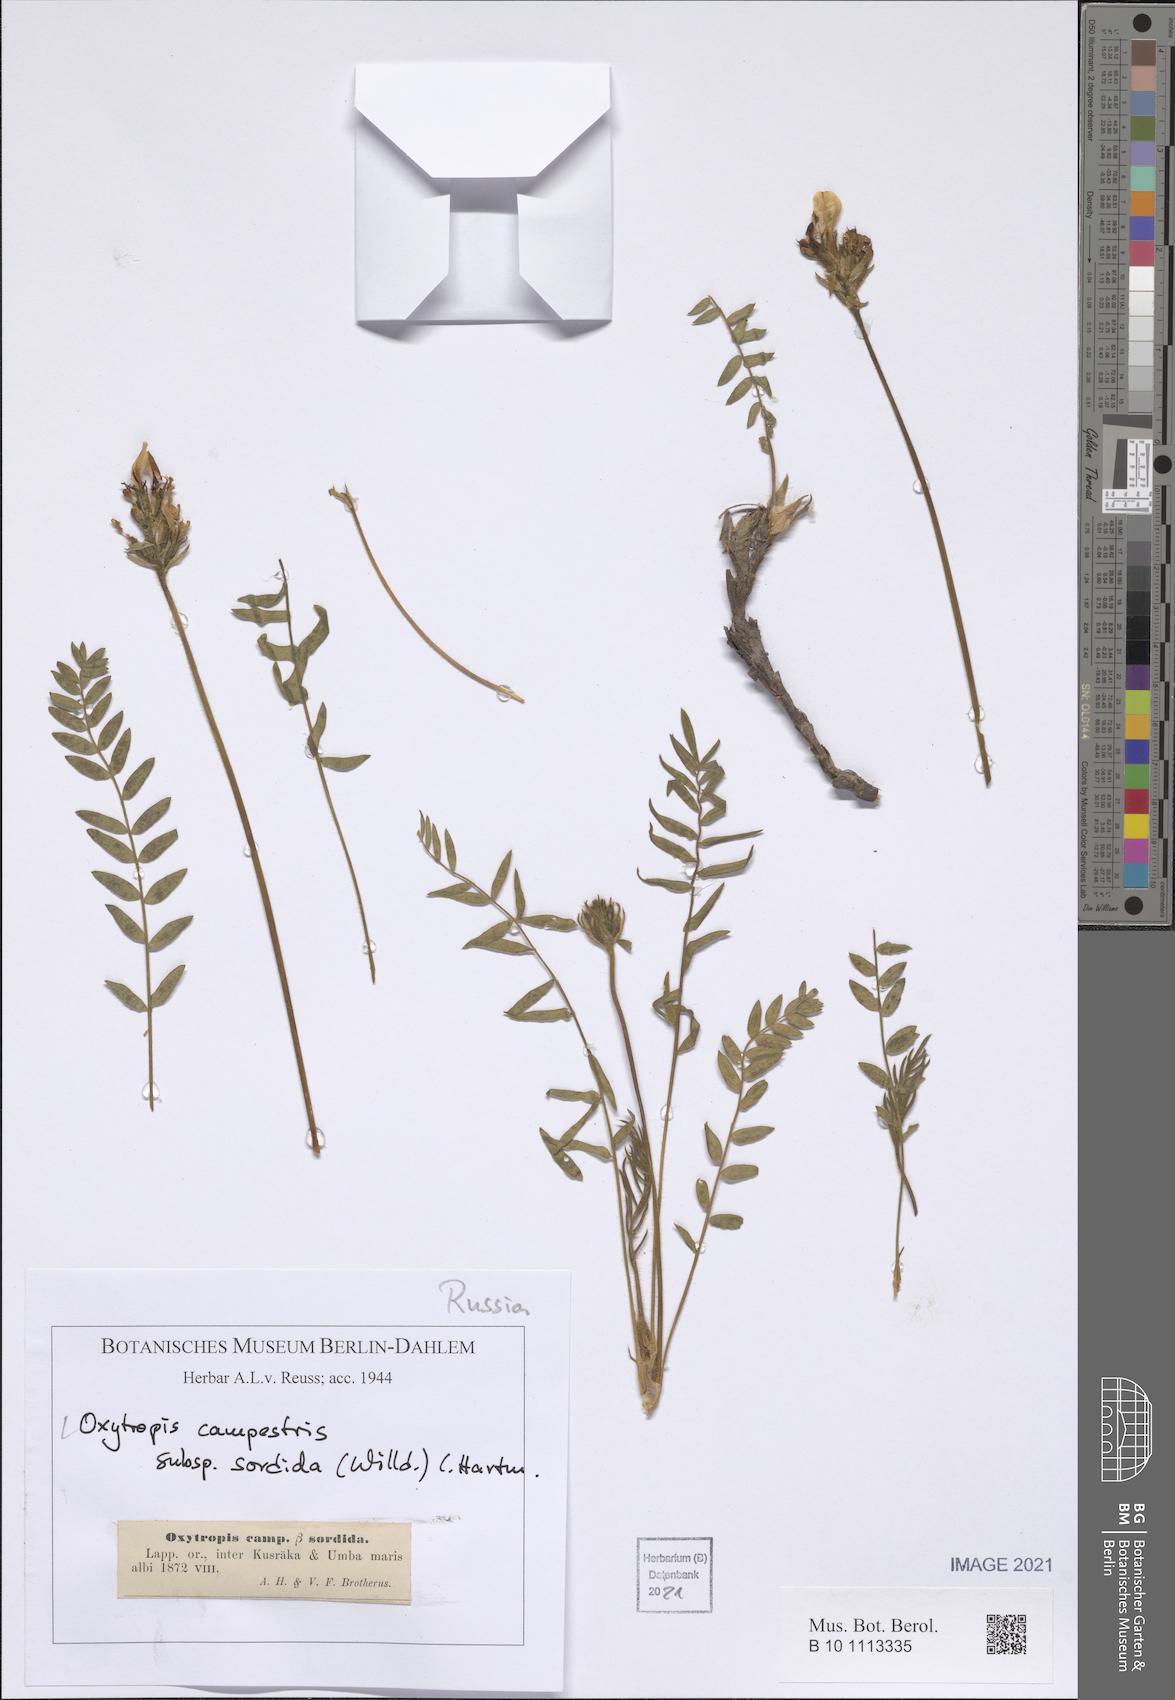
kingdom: Plantae
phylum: Tracheophyta
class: Magnoliopsida
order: Fabales
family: Fabaceae
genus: Oxytropis
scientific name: Oxytropis sordida
